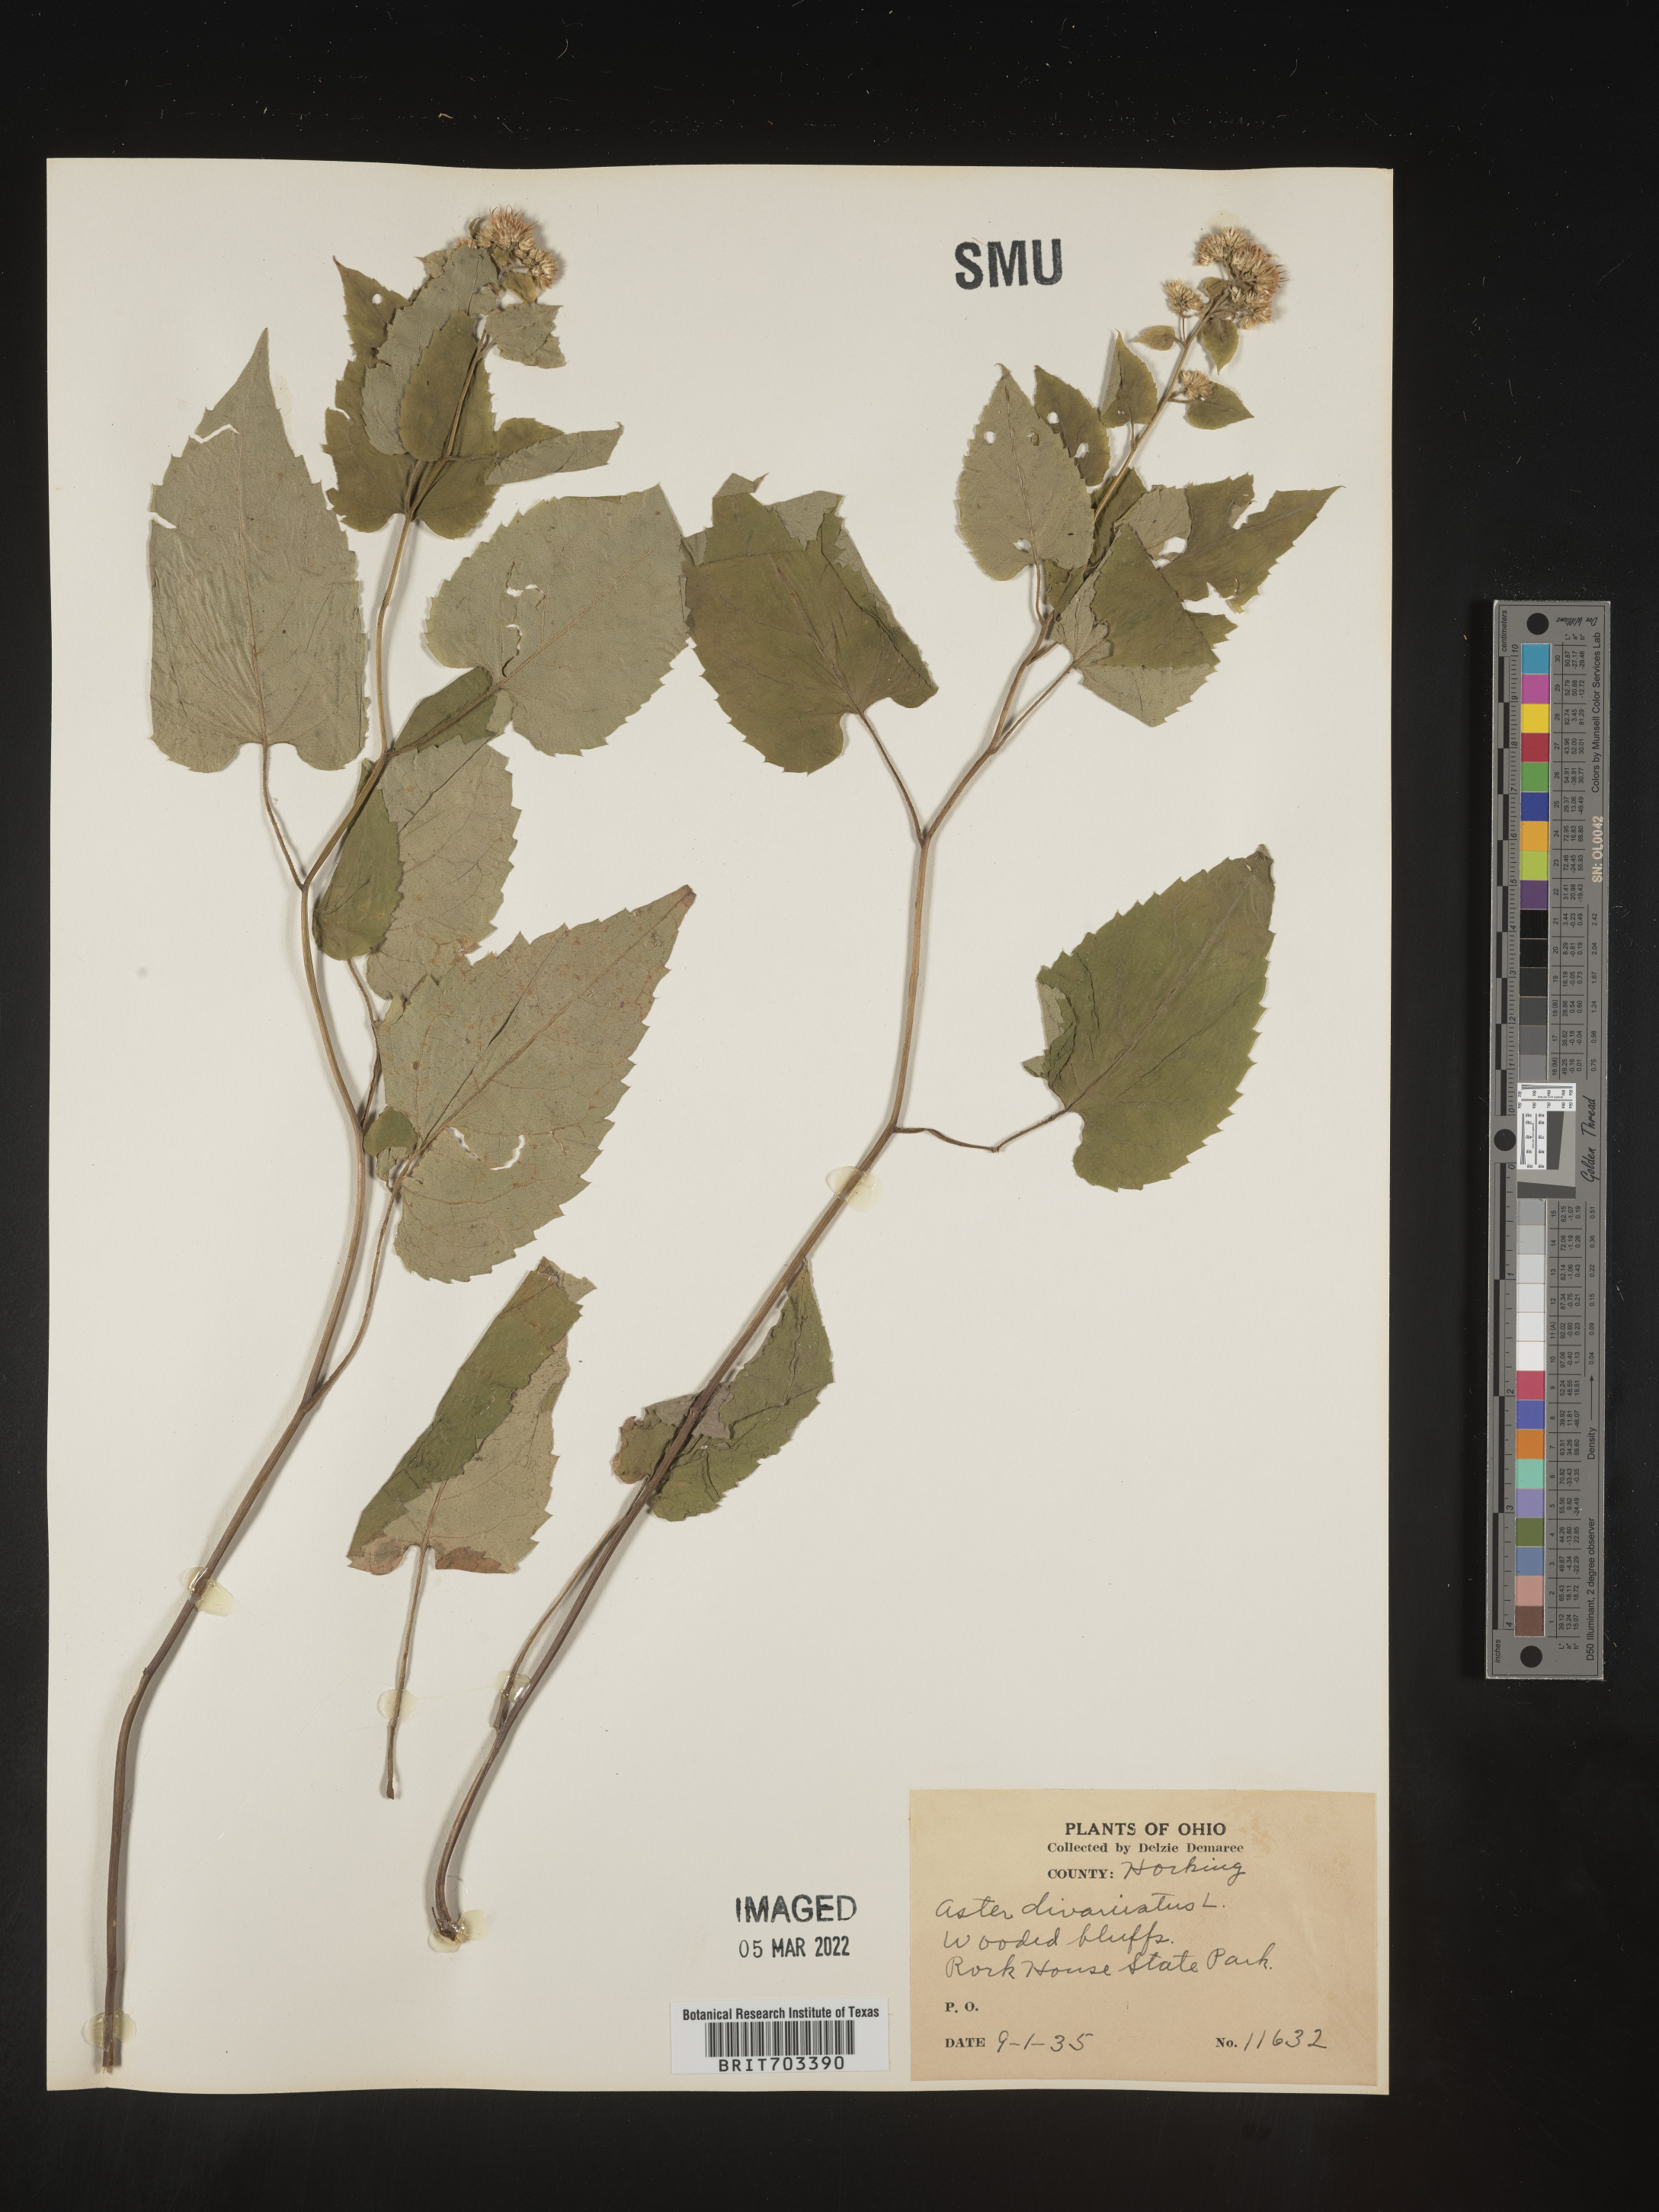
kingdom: Plantae
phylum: Tracheophyta
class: Magnoliopsida
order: Asterales
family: Asteraceae
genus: Eurybia
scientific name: Eurybia divaricata
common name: White wood aster
